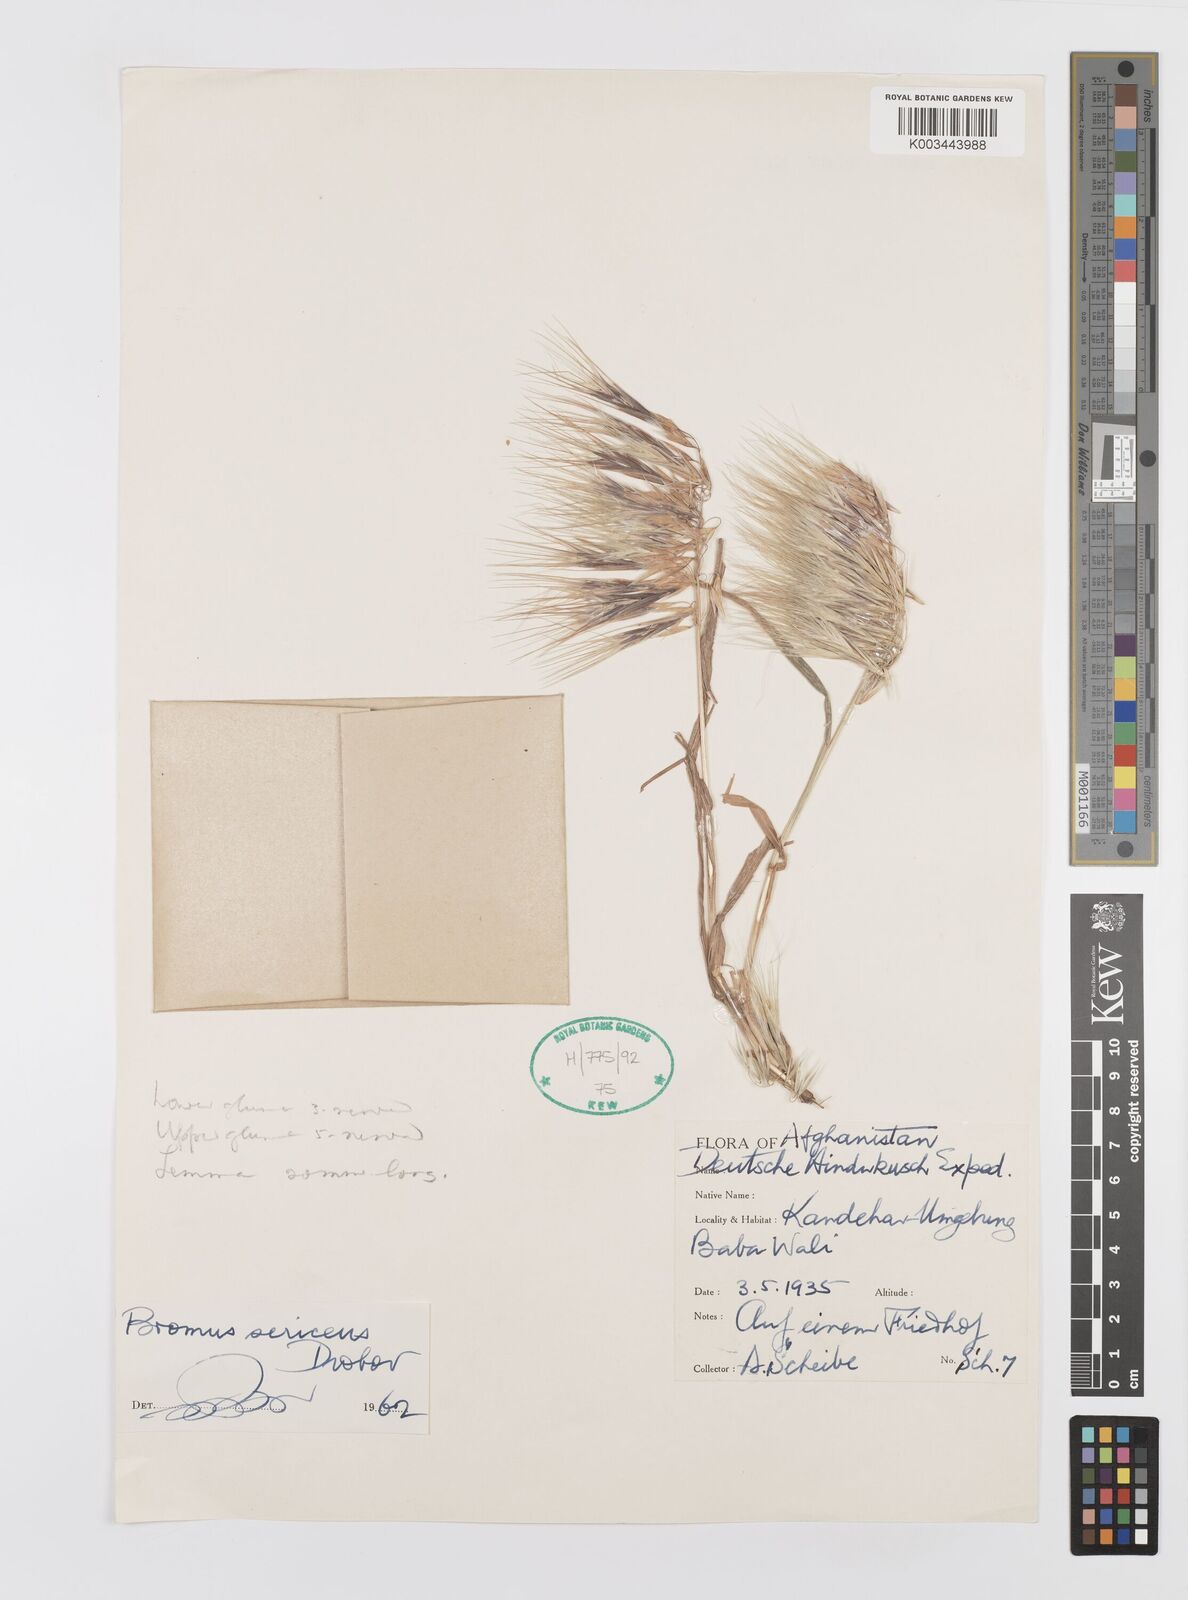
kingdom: Plantae
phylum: Tracheophyta
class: Liliopsida
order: Poales
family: Poaceae
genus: Bromus
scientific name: Bromus moeszii
